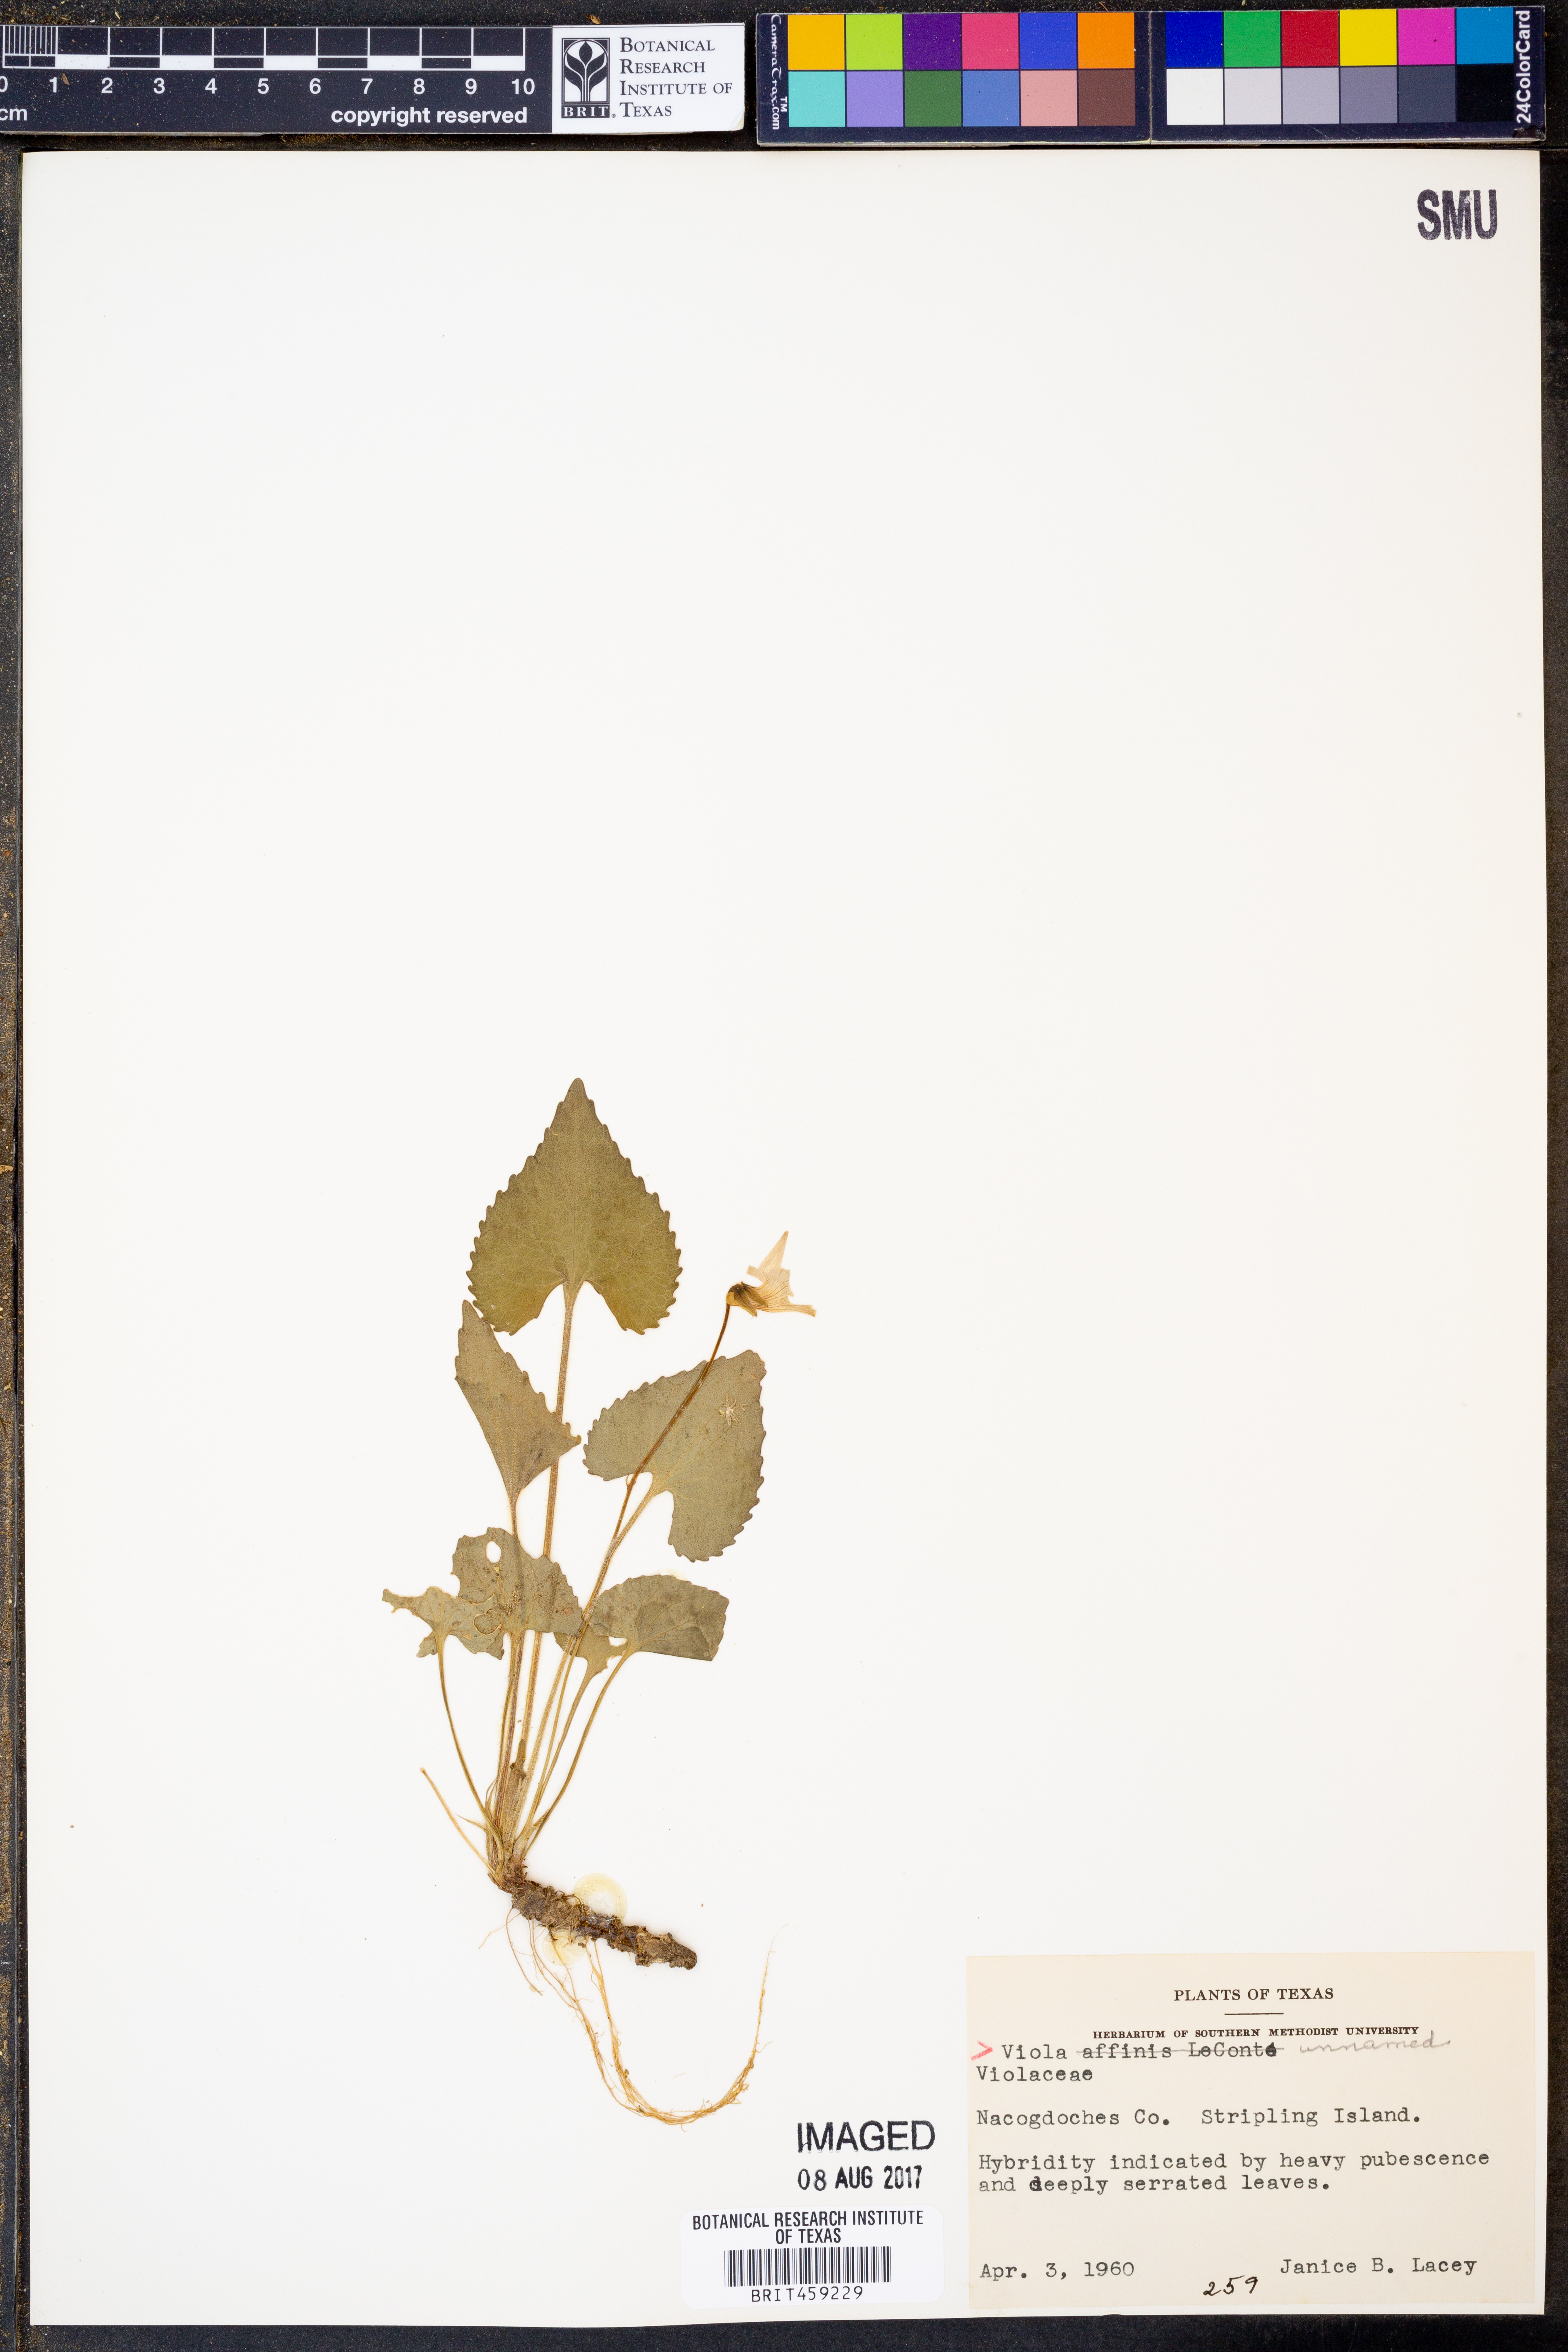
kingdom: Plantae
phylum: Tracheophyta
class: Magnoliopsida
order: Malpighiales
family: Violaceae
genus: Viola
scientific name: Viola
